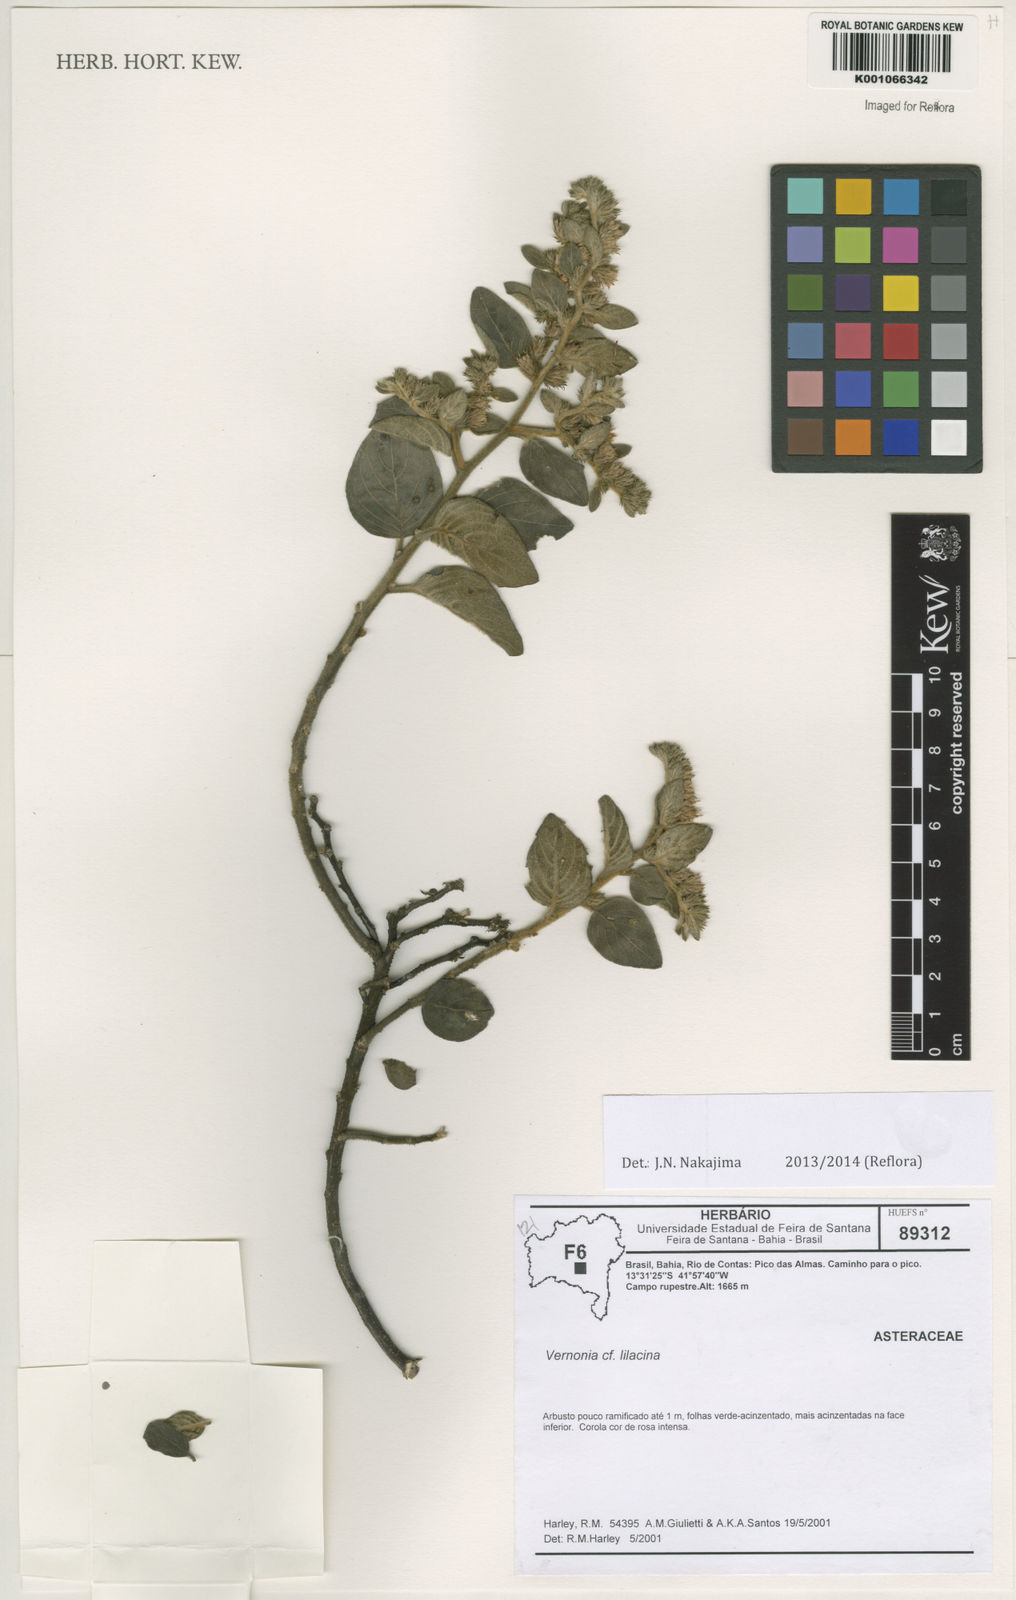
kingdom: Plantae
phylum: Tracheophyta
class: Magnoliopsida
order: Asterales
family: Asteraceae
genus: Lepidaploa
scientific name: Lepidaploa lilacina
